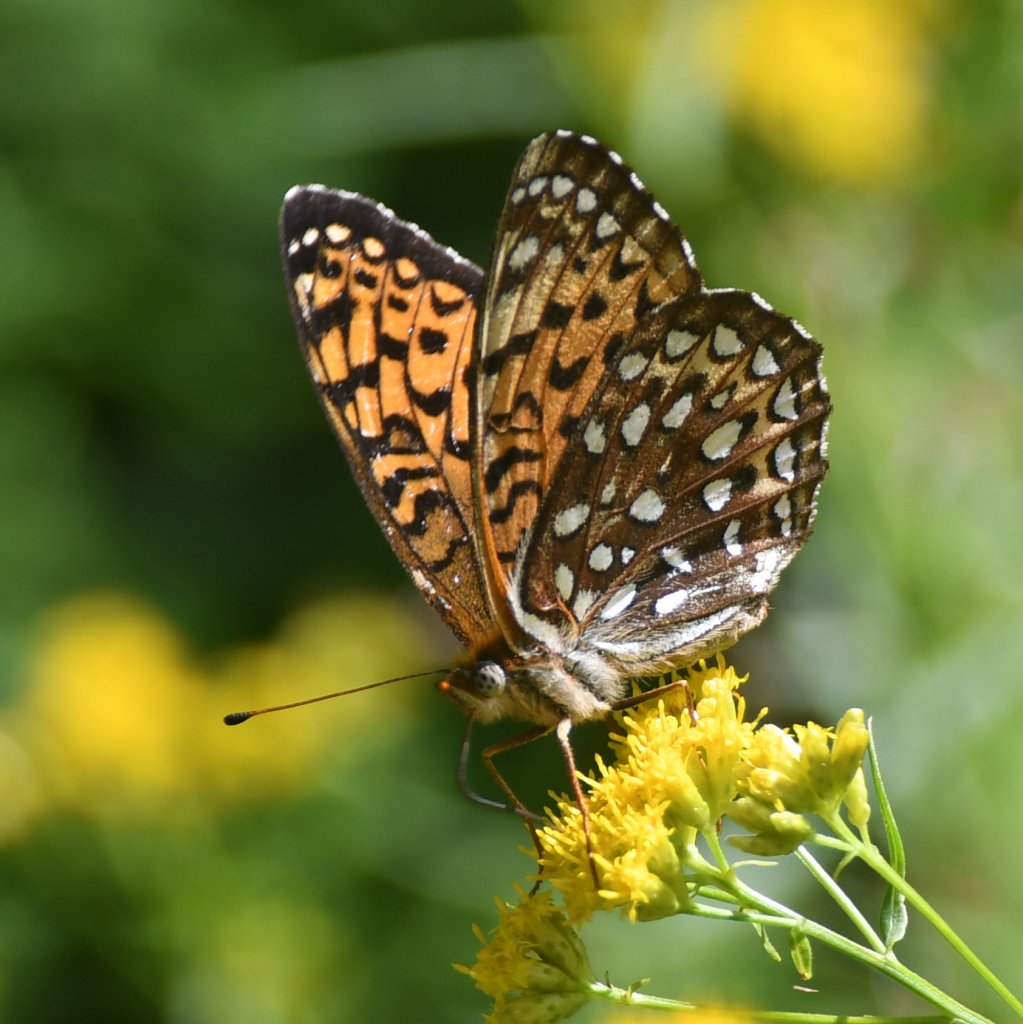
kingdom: Animalia
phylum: Arthropoda
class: Insecta
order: Lepidoptera
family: Nymphalidae
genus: Speyeria
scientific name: Speyeria atlantis
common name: Atlantis Fritillary
